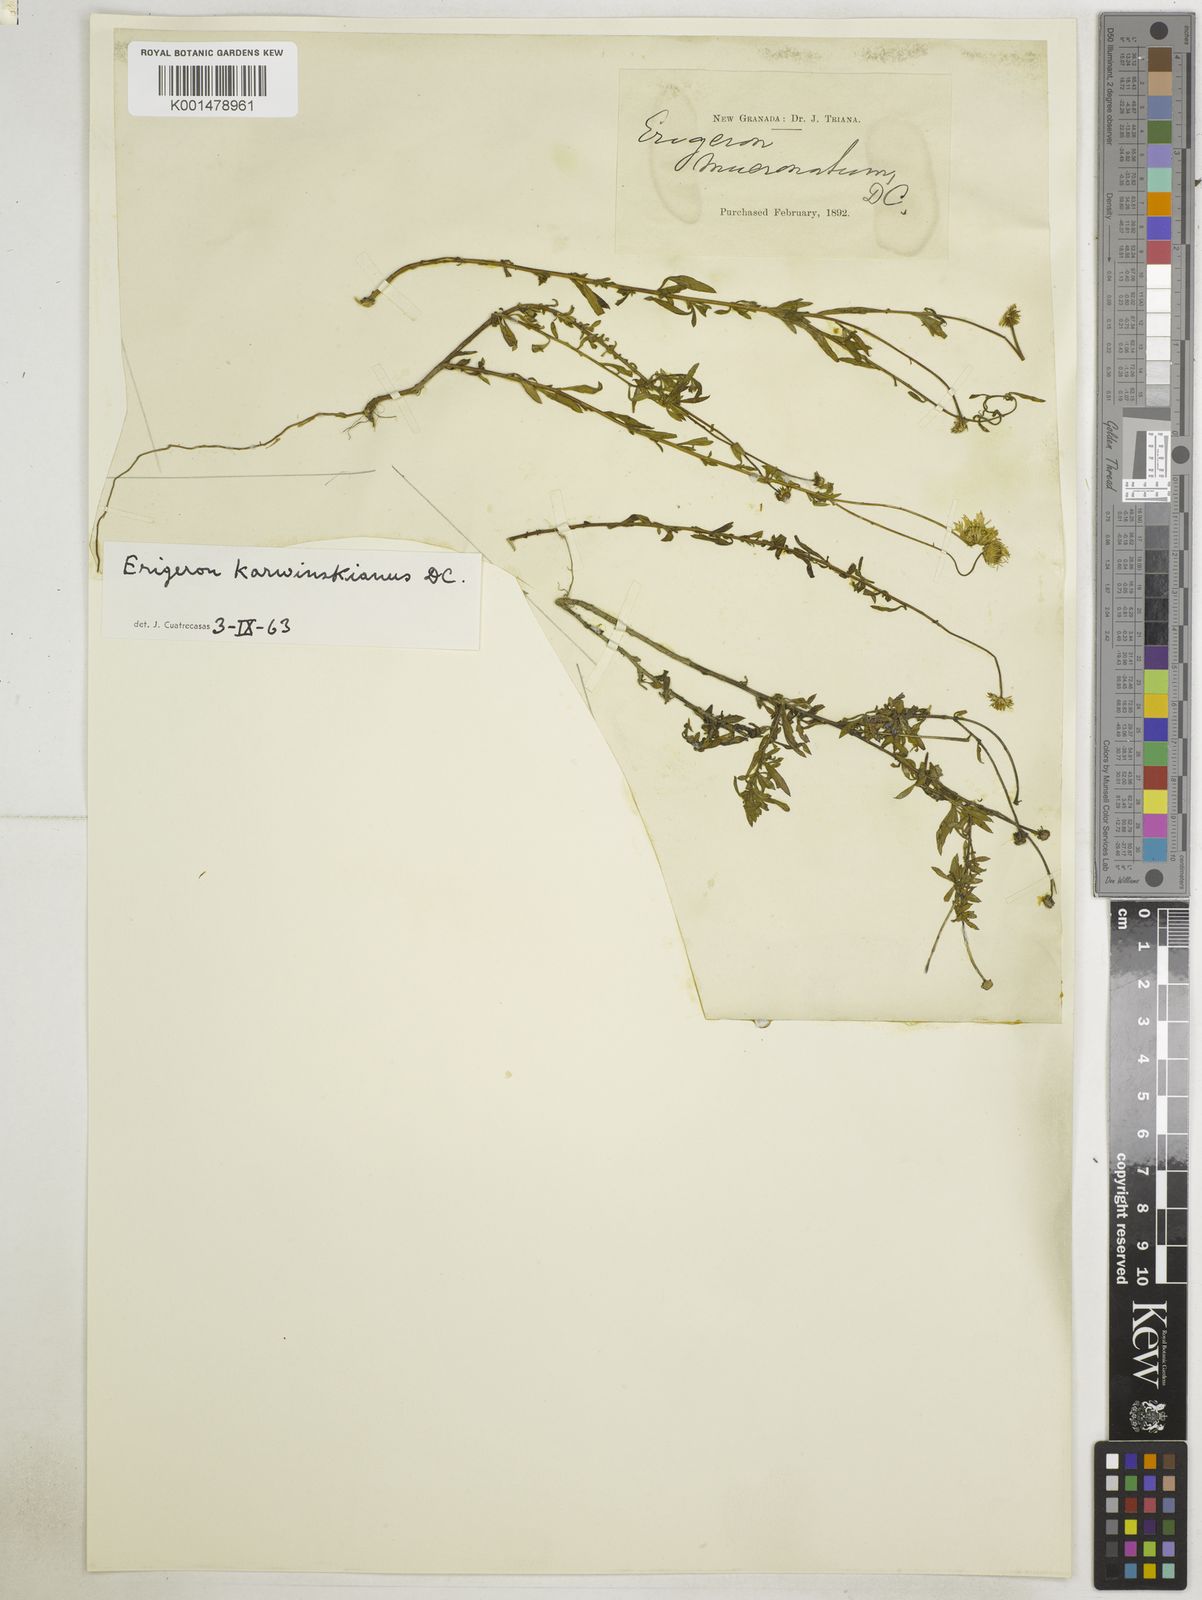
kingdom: Plantae
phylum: Tracheophyta
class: Magnoliopsida
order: Asterales
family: Asteraceae
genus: Erigeron
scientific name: Erigeron karvinskianus
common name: Mexican fleabane
